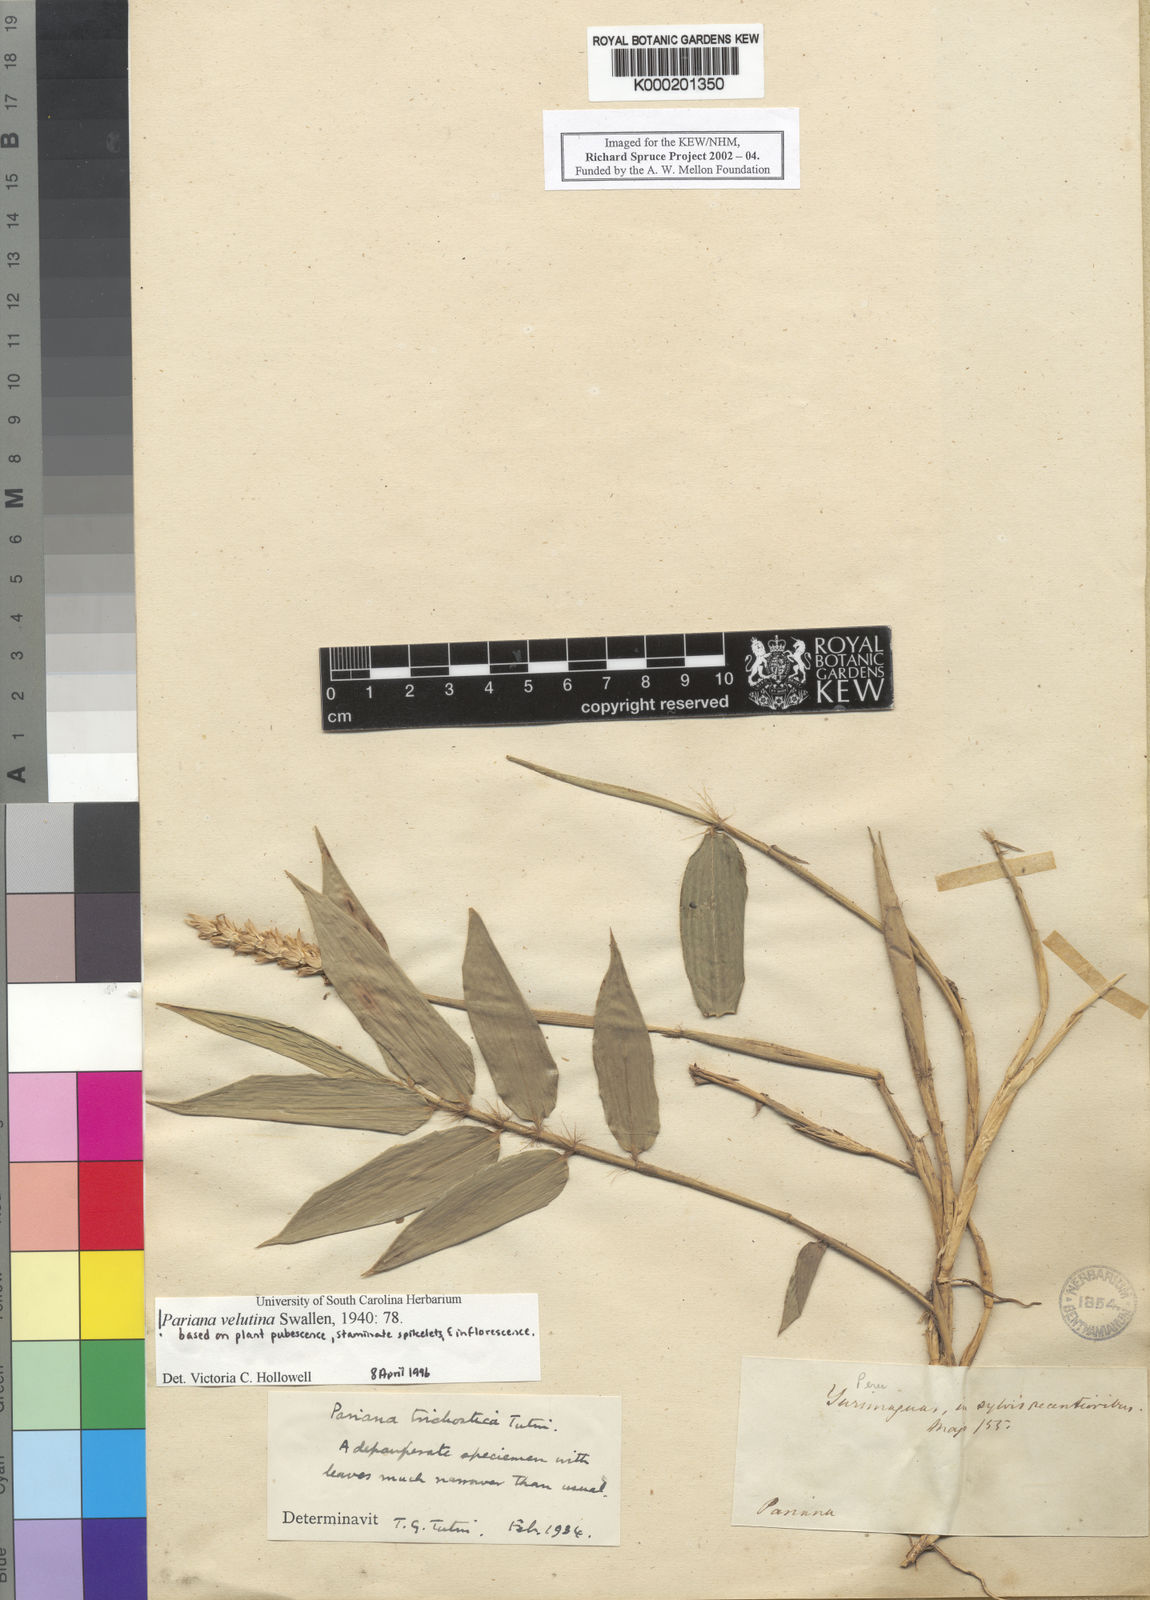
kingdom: Plantae
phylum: Tracheophyta
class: Liliopsida
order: Poales
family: Poaceae
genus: Pariana
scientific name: Pariana velutina
